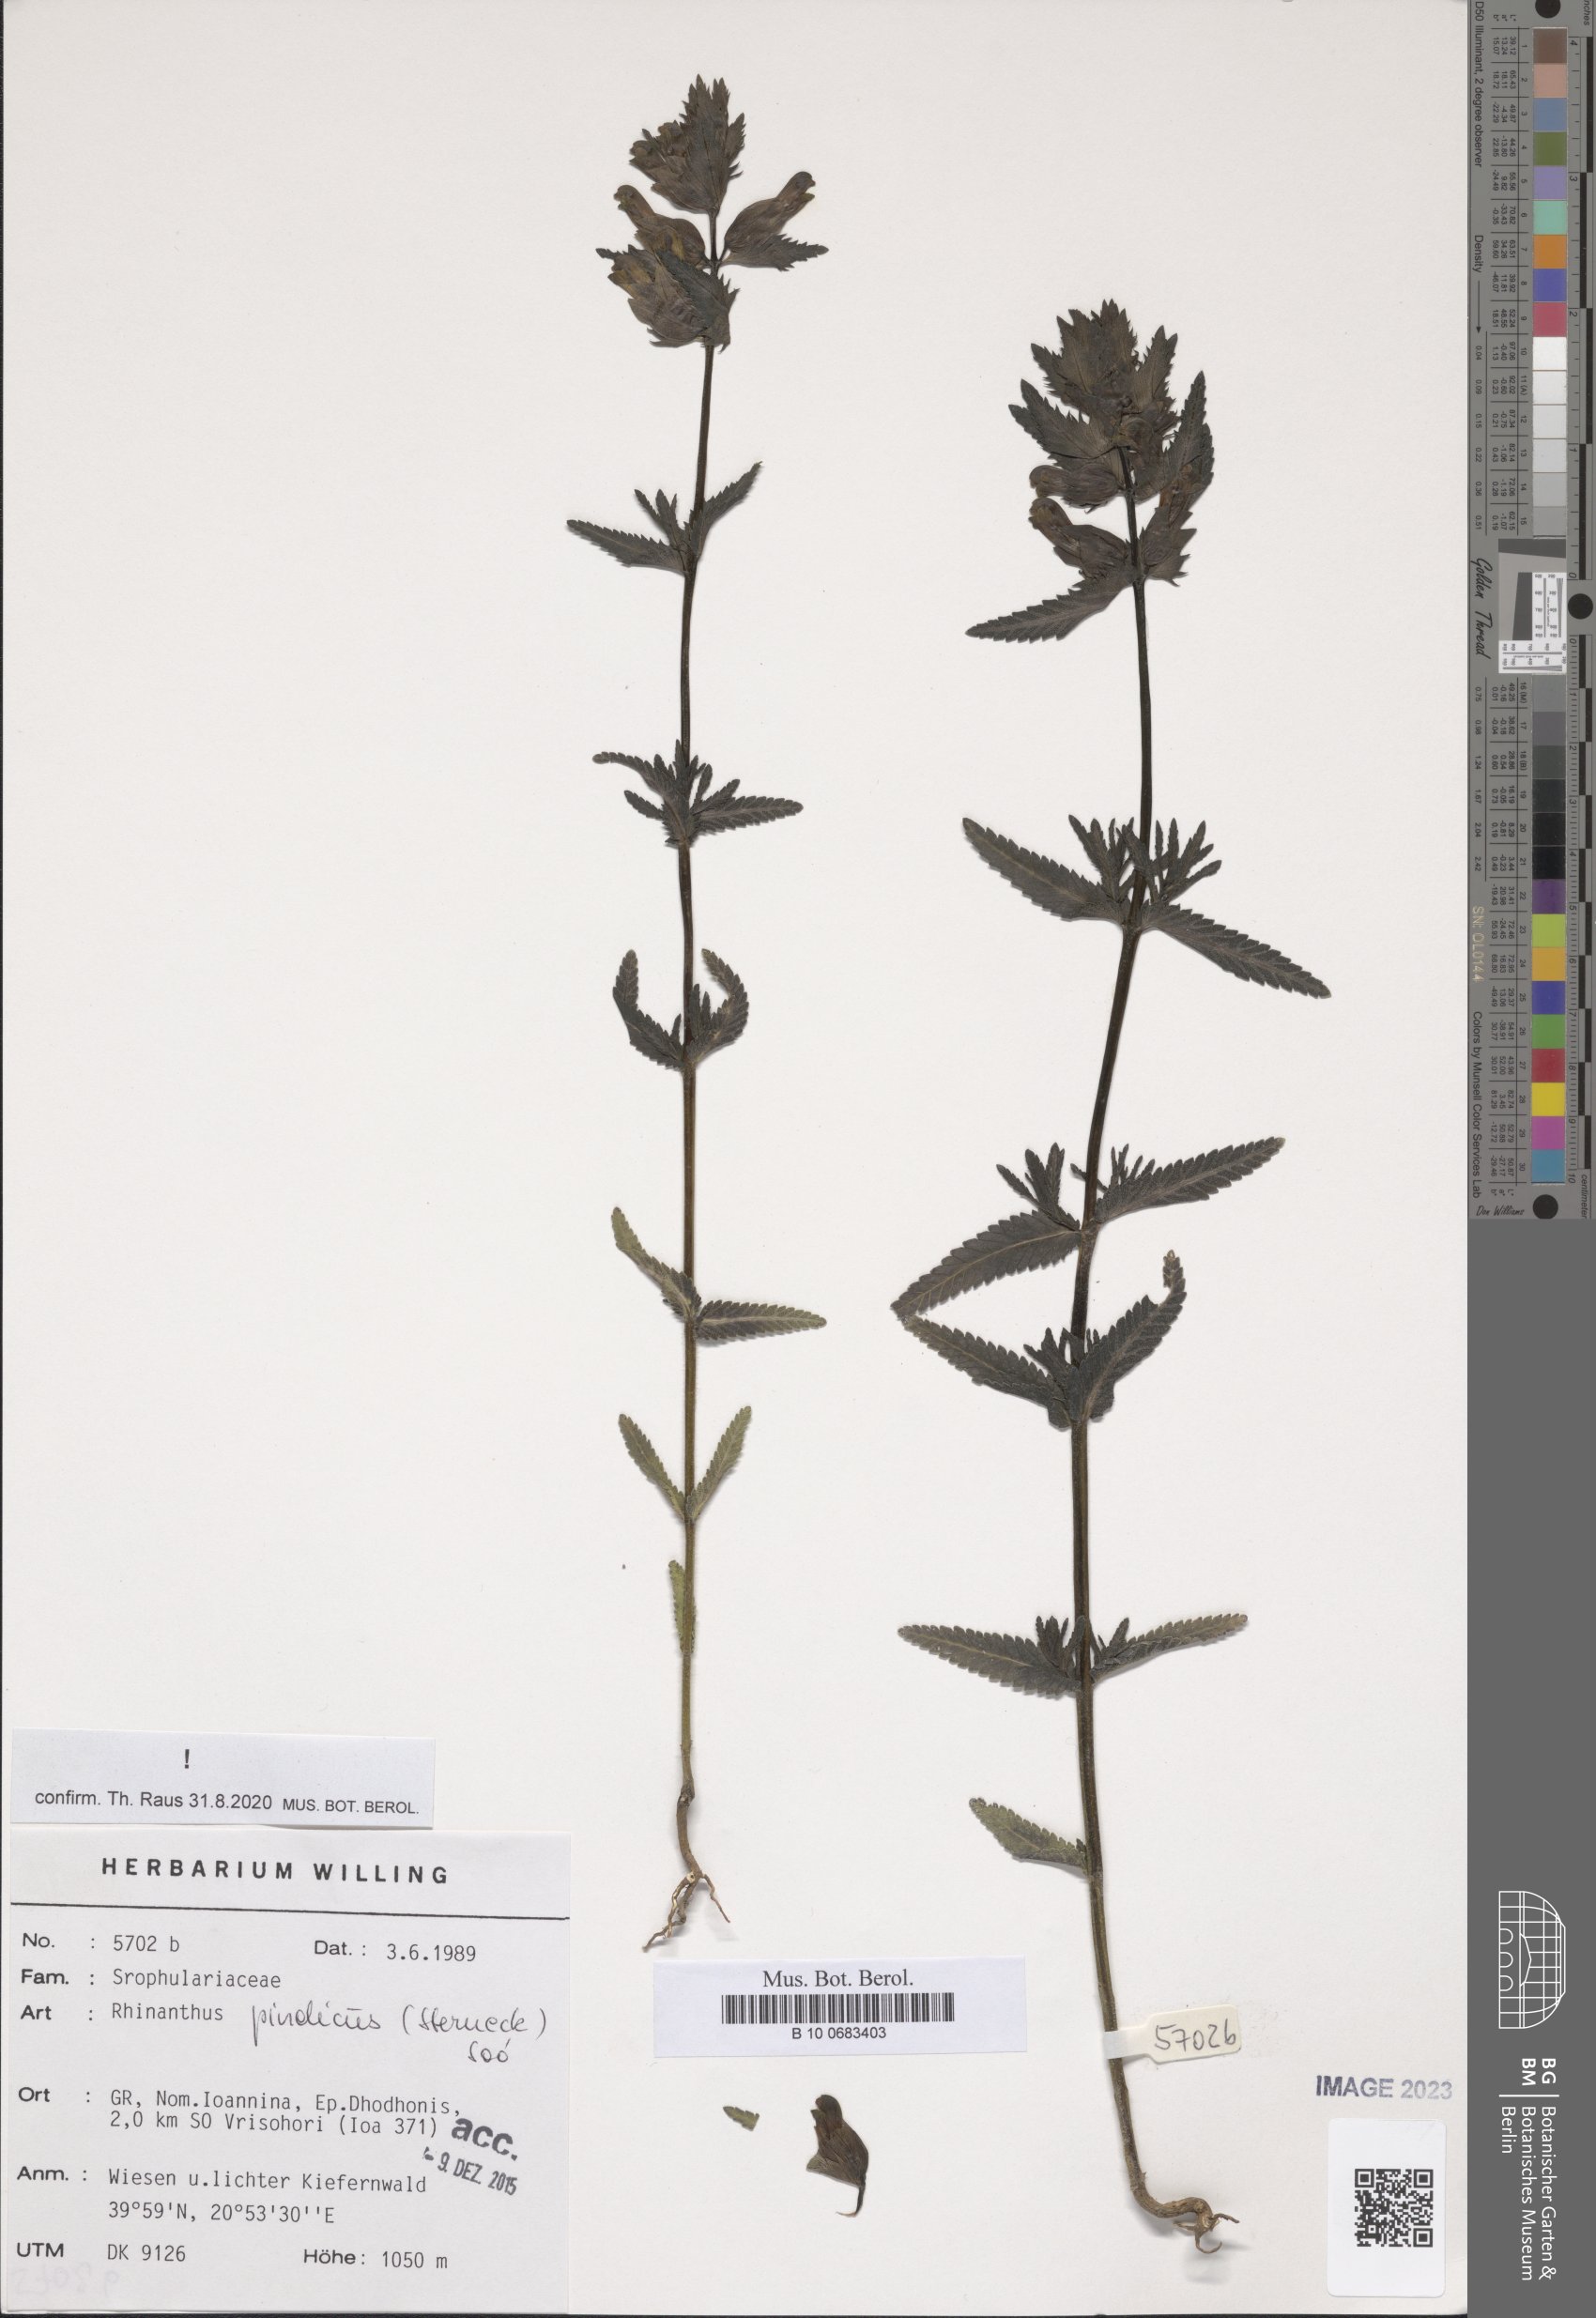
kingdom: Plantae
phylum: Tracheophyta
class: Magnoliopsida
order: Lamiales
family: Orobanchaceae
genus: Rhinanthus
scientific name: Rhinanthus pindicus
